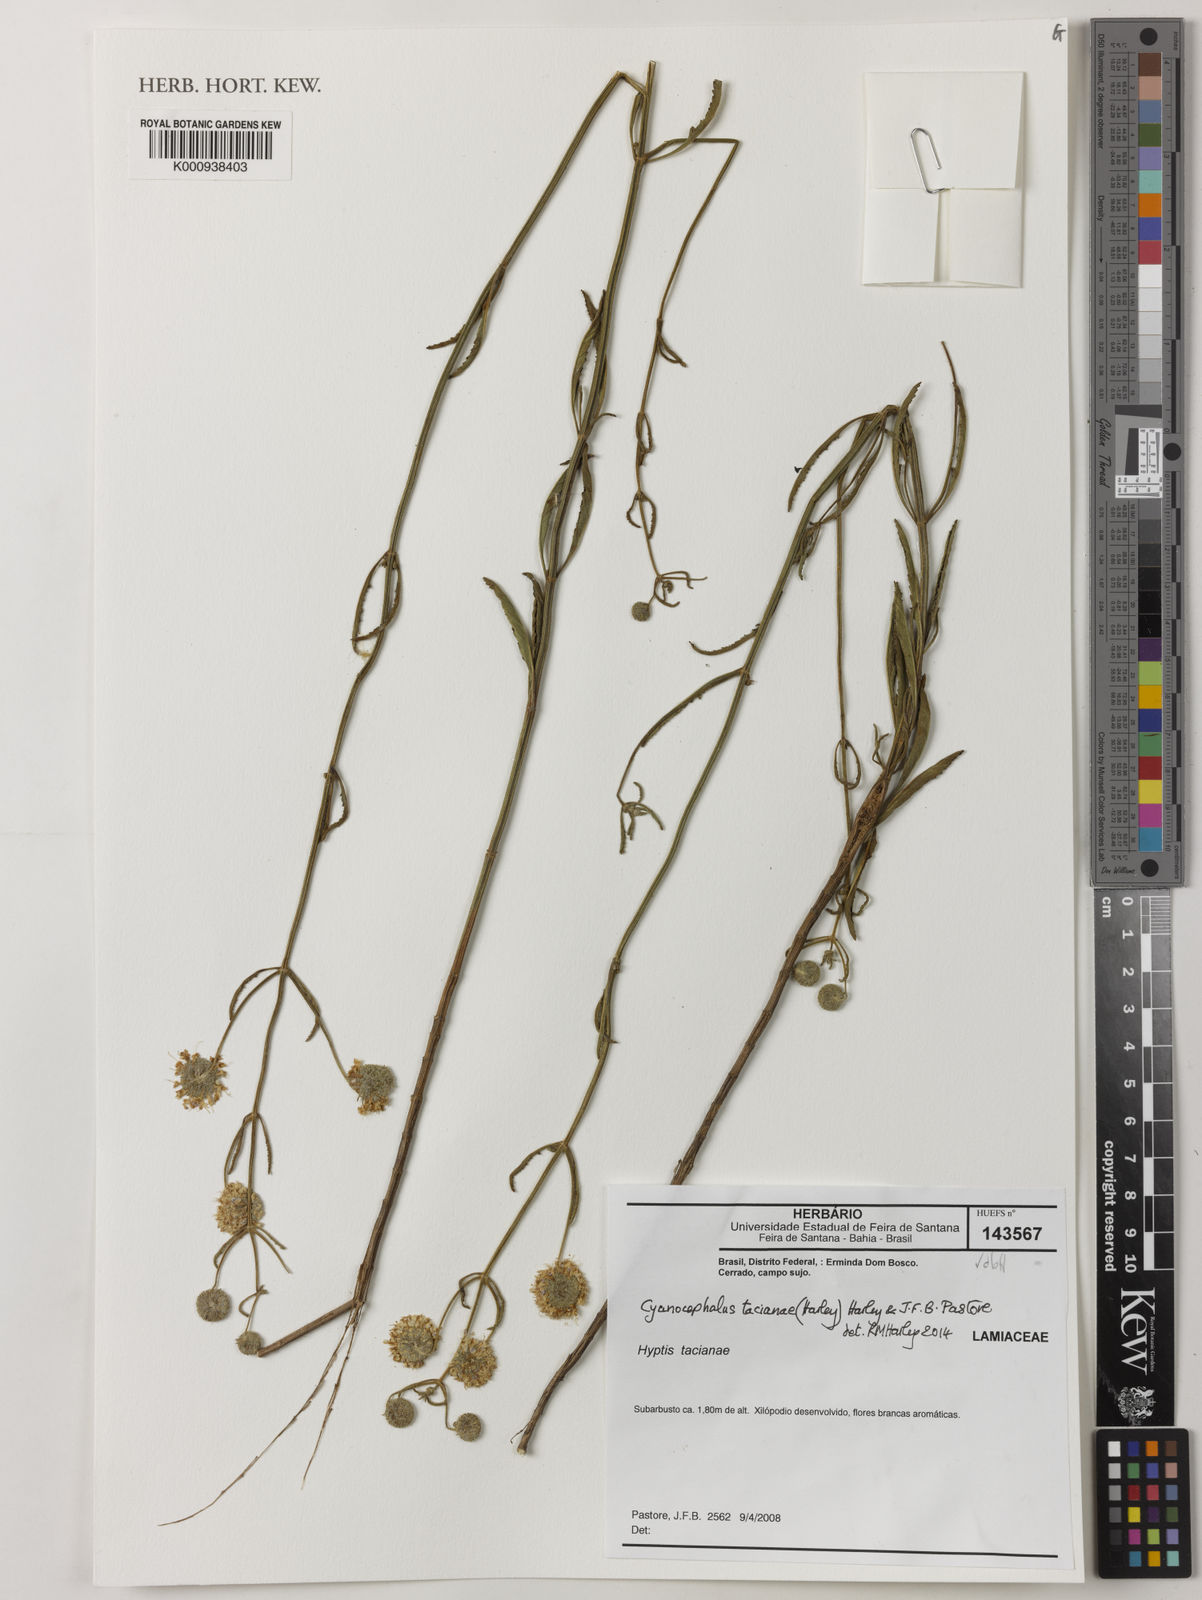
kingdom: Plantae
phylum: Tracheophyta
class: Magnoliopsida
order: Lamiales
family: Lamiaceae
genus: Cyanocephalus
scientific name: Cyanocephalus tacianae
